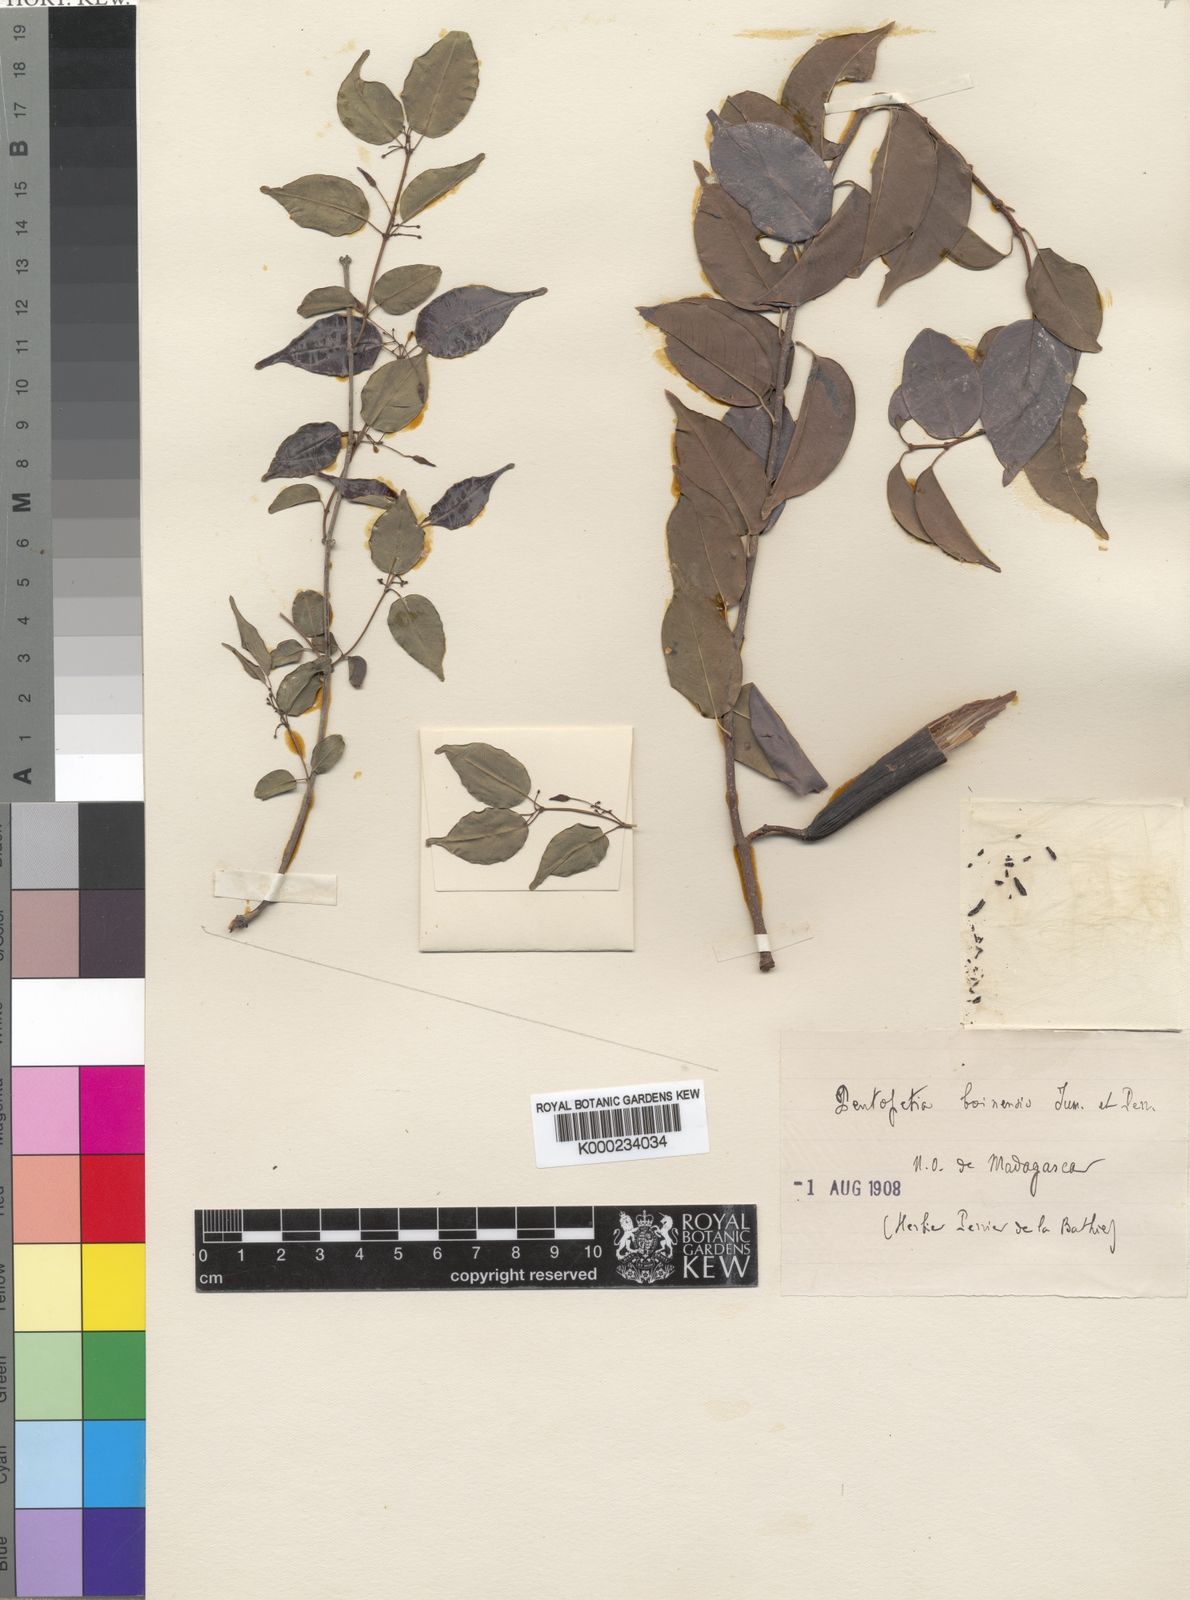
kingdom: Plantae
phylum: Tracheophyta
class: Magnoliopsida
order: Gentianales
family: Apocynaceae
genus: Pentopetia
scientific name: Pentopetia androsaemifolia
